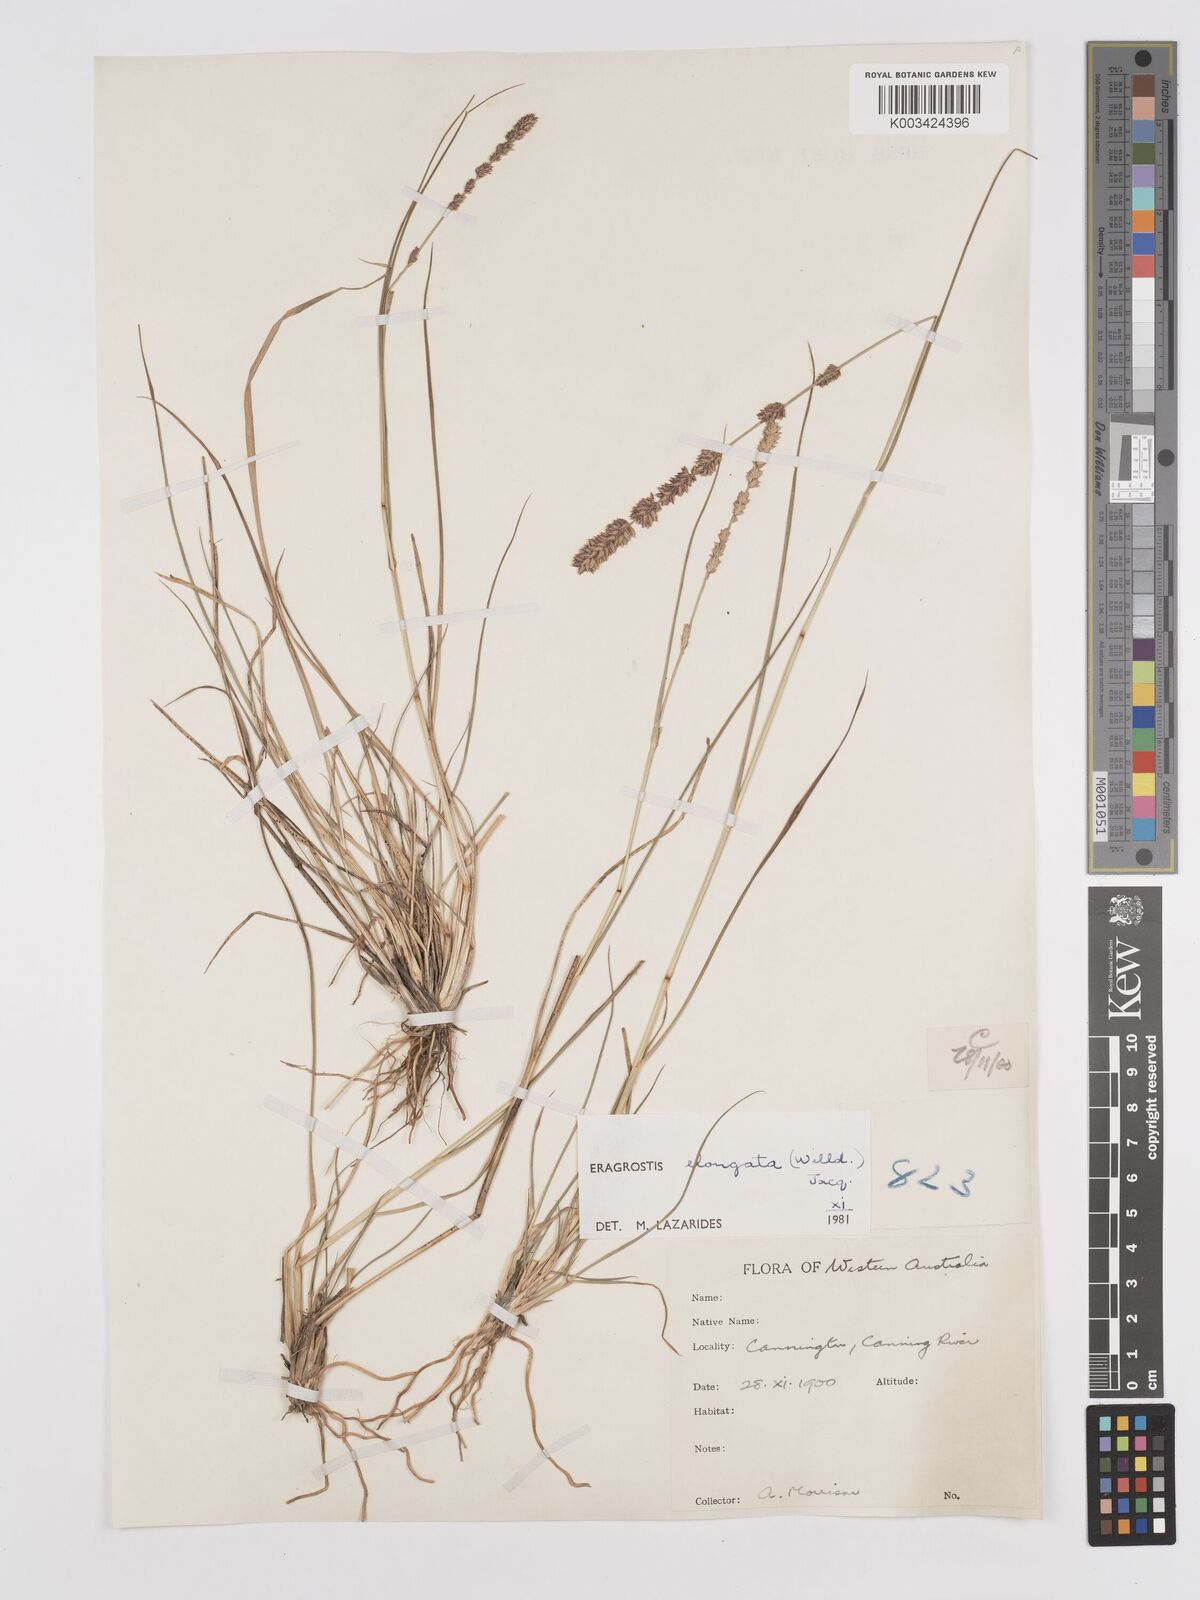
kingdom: Plantae
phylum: Tracheophyta
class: Liliopsida
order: Poales
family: Poaceae
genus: Eragrostis
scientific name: Eragrostis elongata
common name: Long lovegrass
